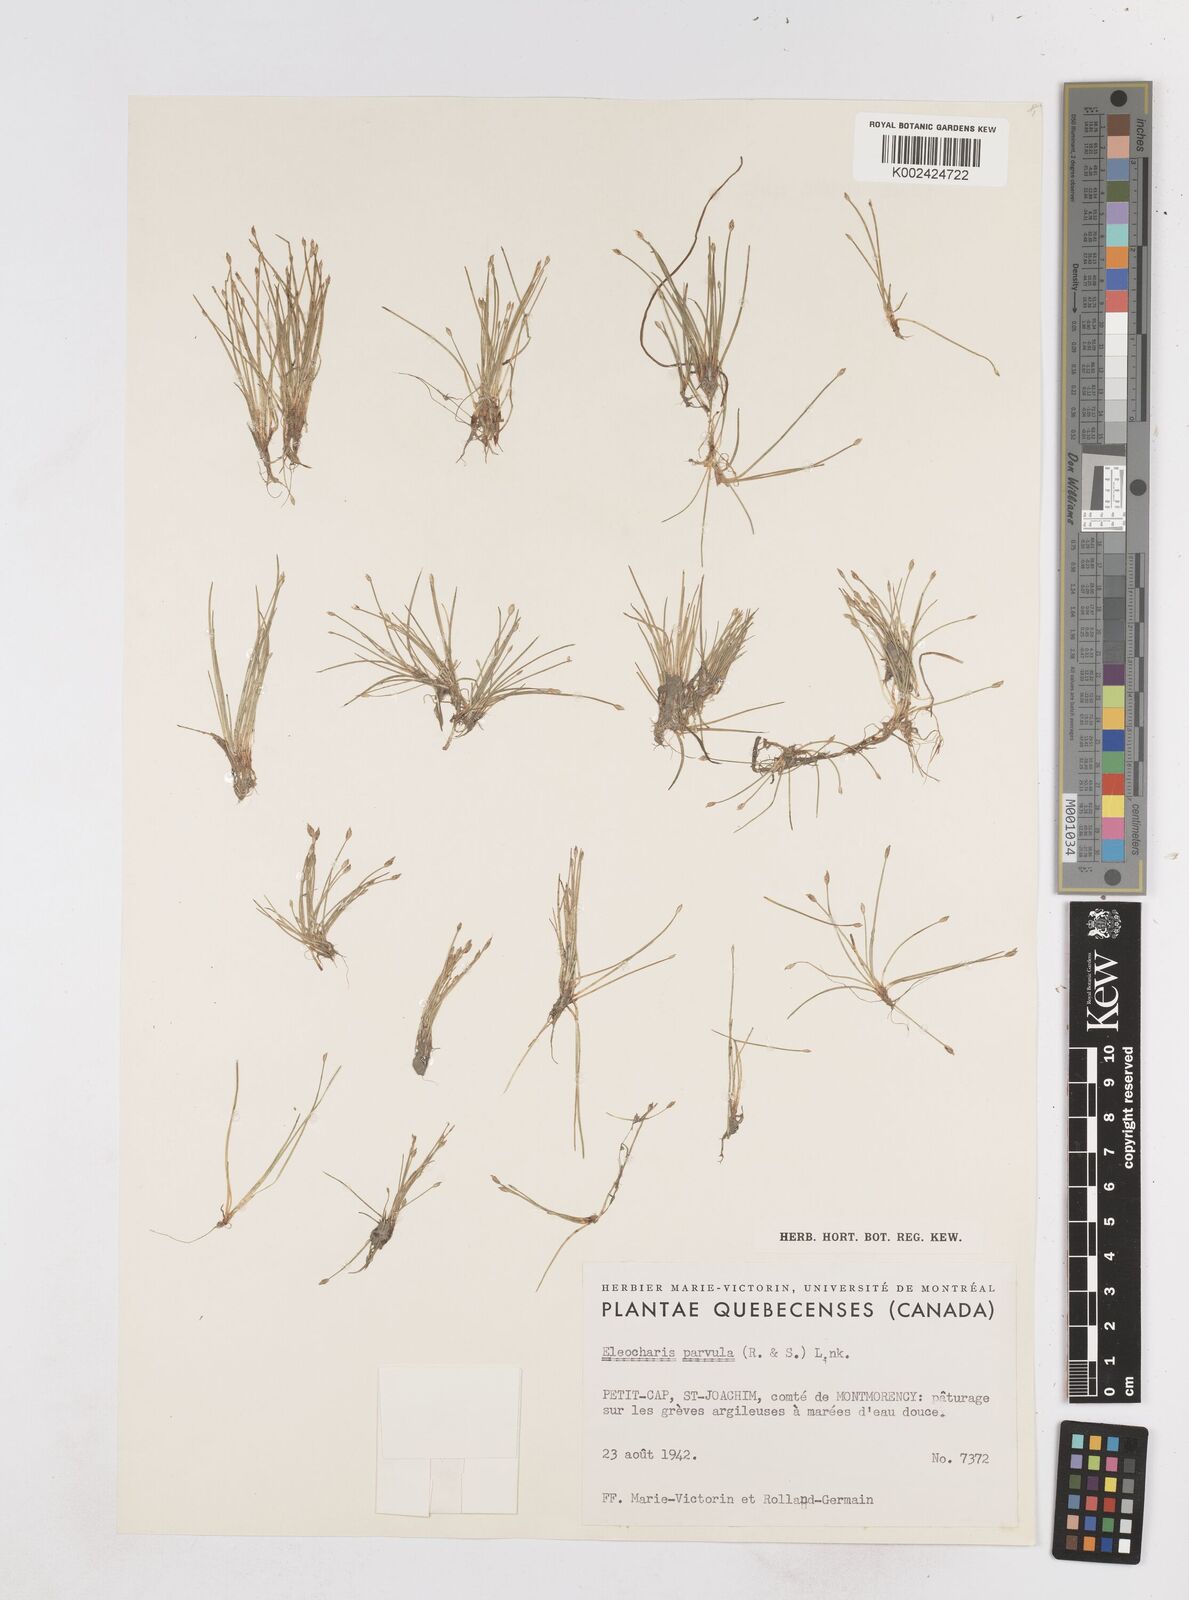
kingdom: Plantae
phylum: Tracheophyta
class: Liliopsida
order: Poales
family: Cyperaceae
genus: Eleocharis
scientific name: Eleocharis parvula
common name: Dwarf spike-rush
